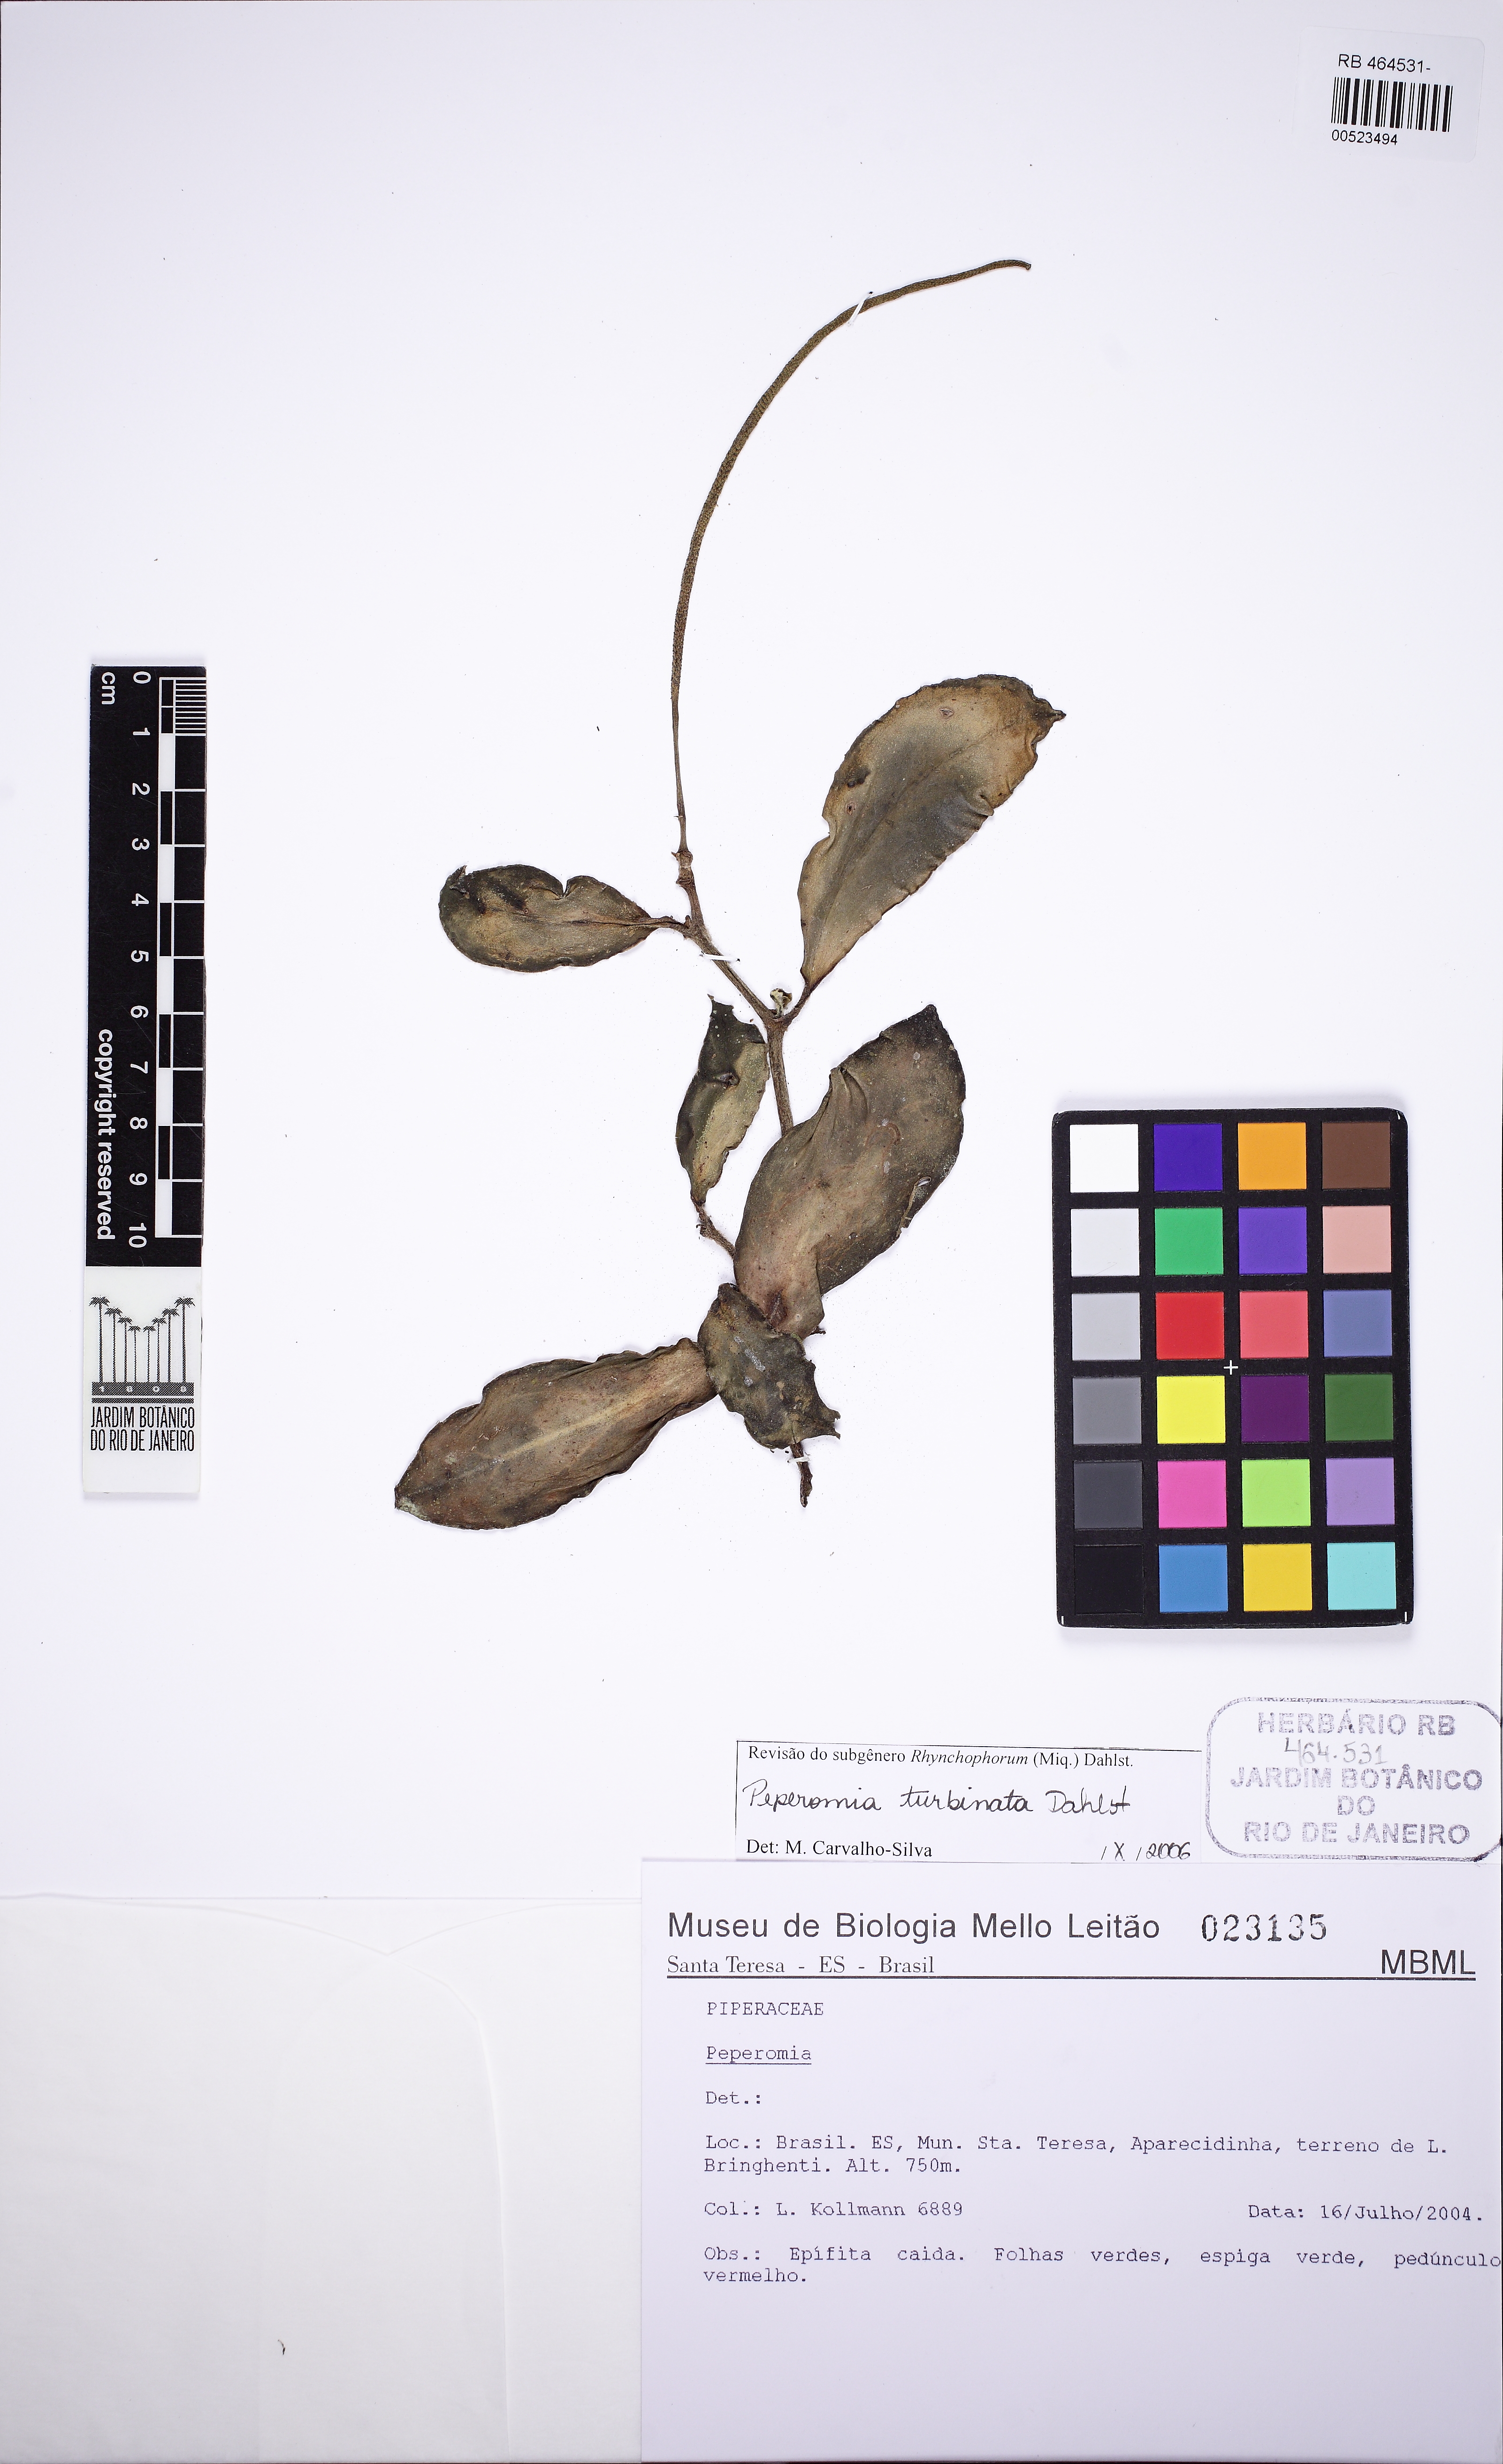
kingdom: Plantae
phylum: Tracheophyta
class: Magnoliopsida
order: Piperales
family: Piperaceae
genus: Peperomia
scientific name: Peperomia turbinata
